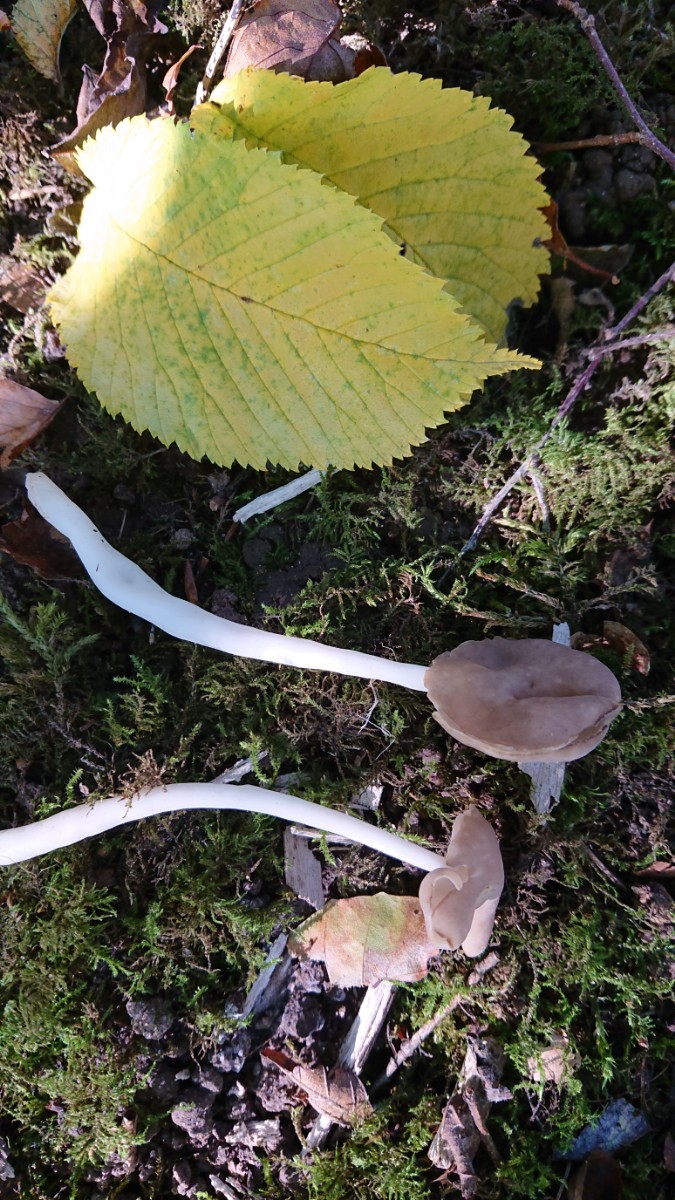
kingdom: Fungi
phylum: Ascomycota
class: Pezizomycetes
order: Pezizales
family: Helvellaceae
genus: Helvella
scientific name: Helvella elastica
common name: elastik-foldhat
